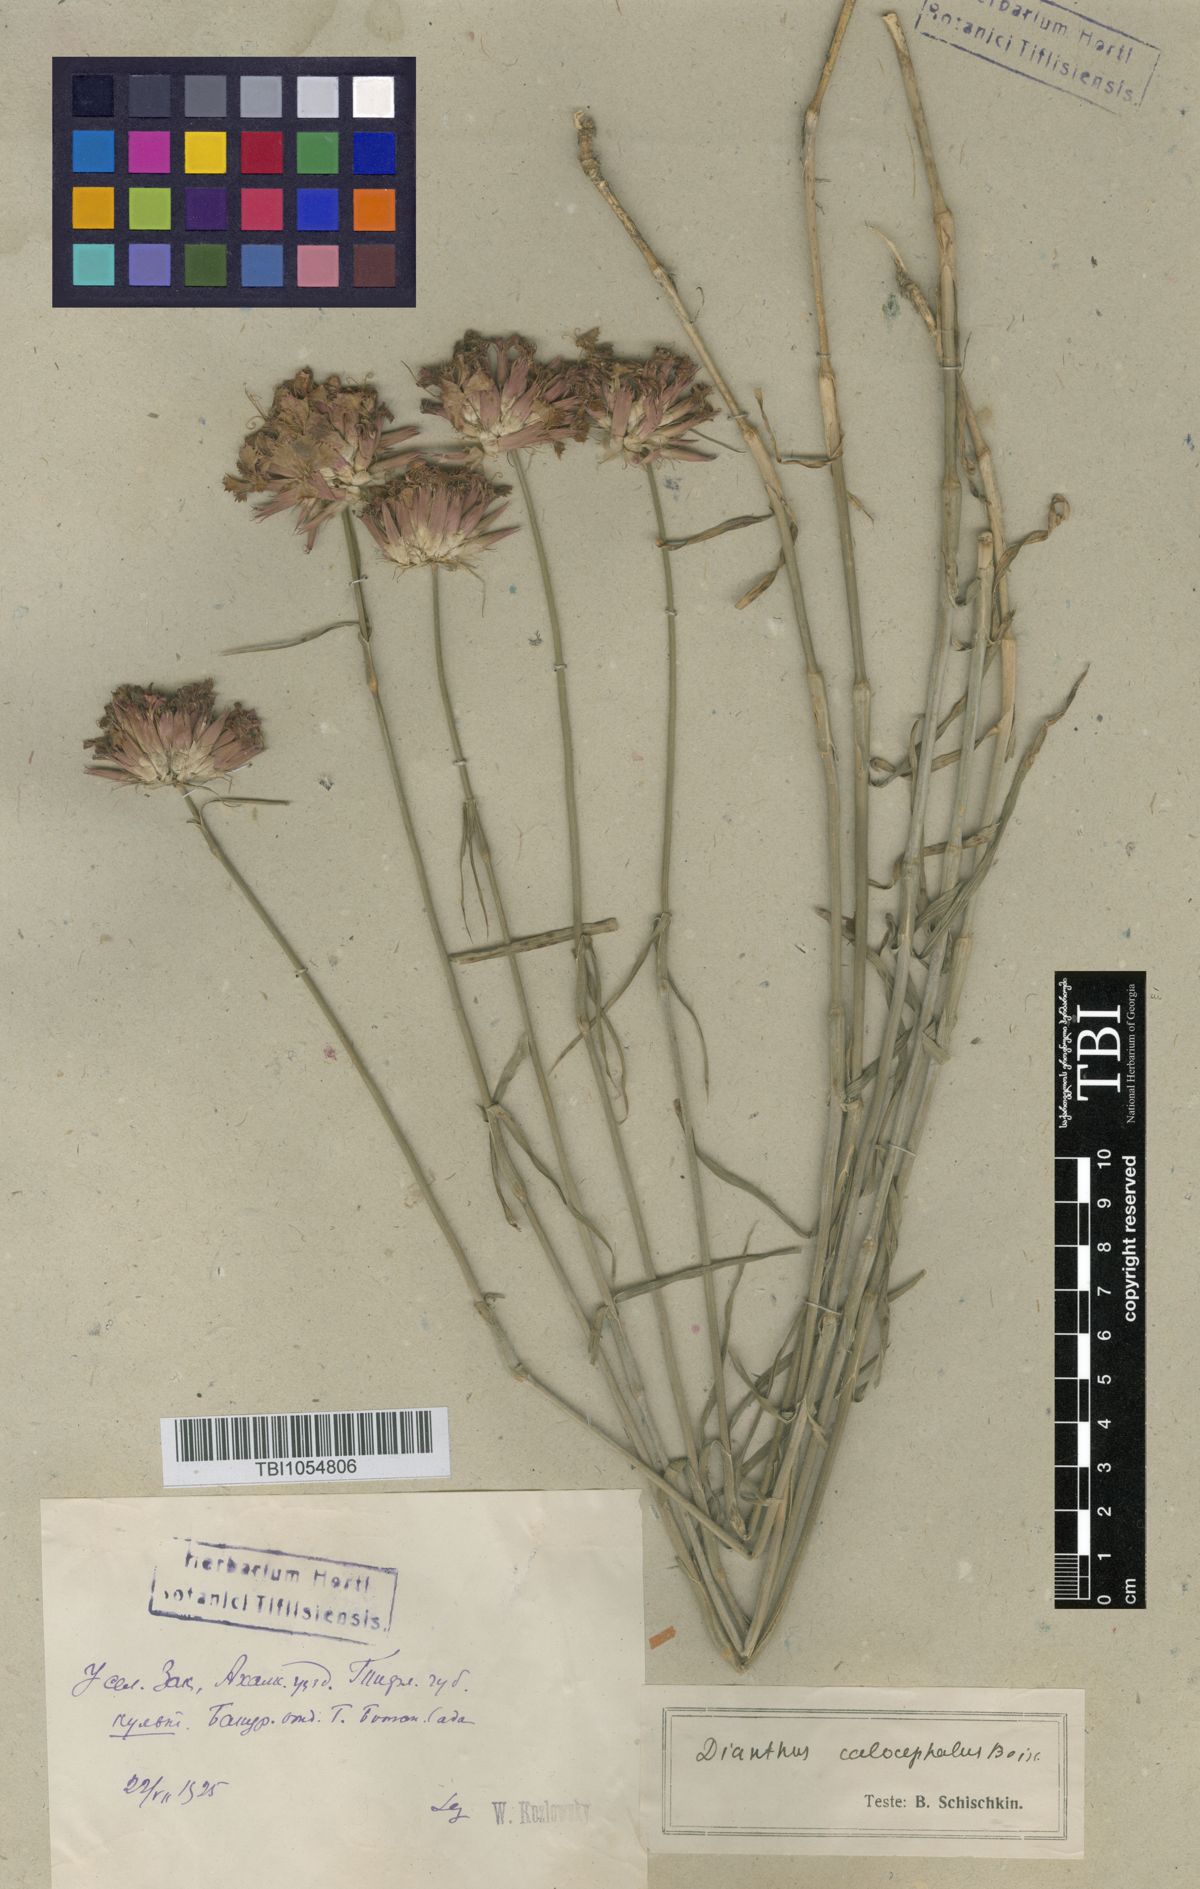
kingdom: Plantae
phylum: Tracheophyta
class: Magnoliopsida
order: Caryophyllales
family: Caryophyllaceae
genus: Dianthus
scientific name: Dianthus cruentus
